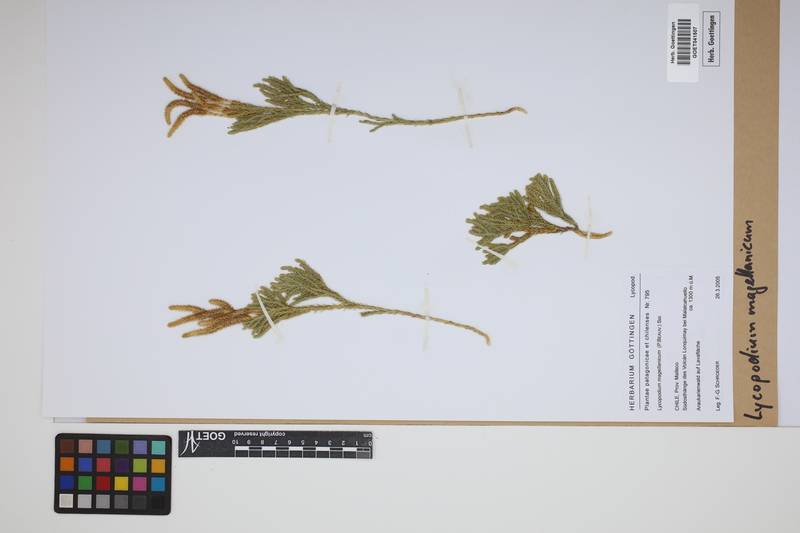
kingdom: Plantae
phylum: Tracheophyta
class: Lycopodiopsida
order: Lycopodiales
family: Lycopodiaceae
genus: Austrolycopodium
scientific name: Austrolycopodium magellanicum
